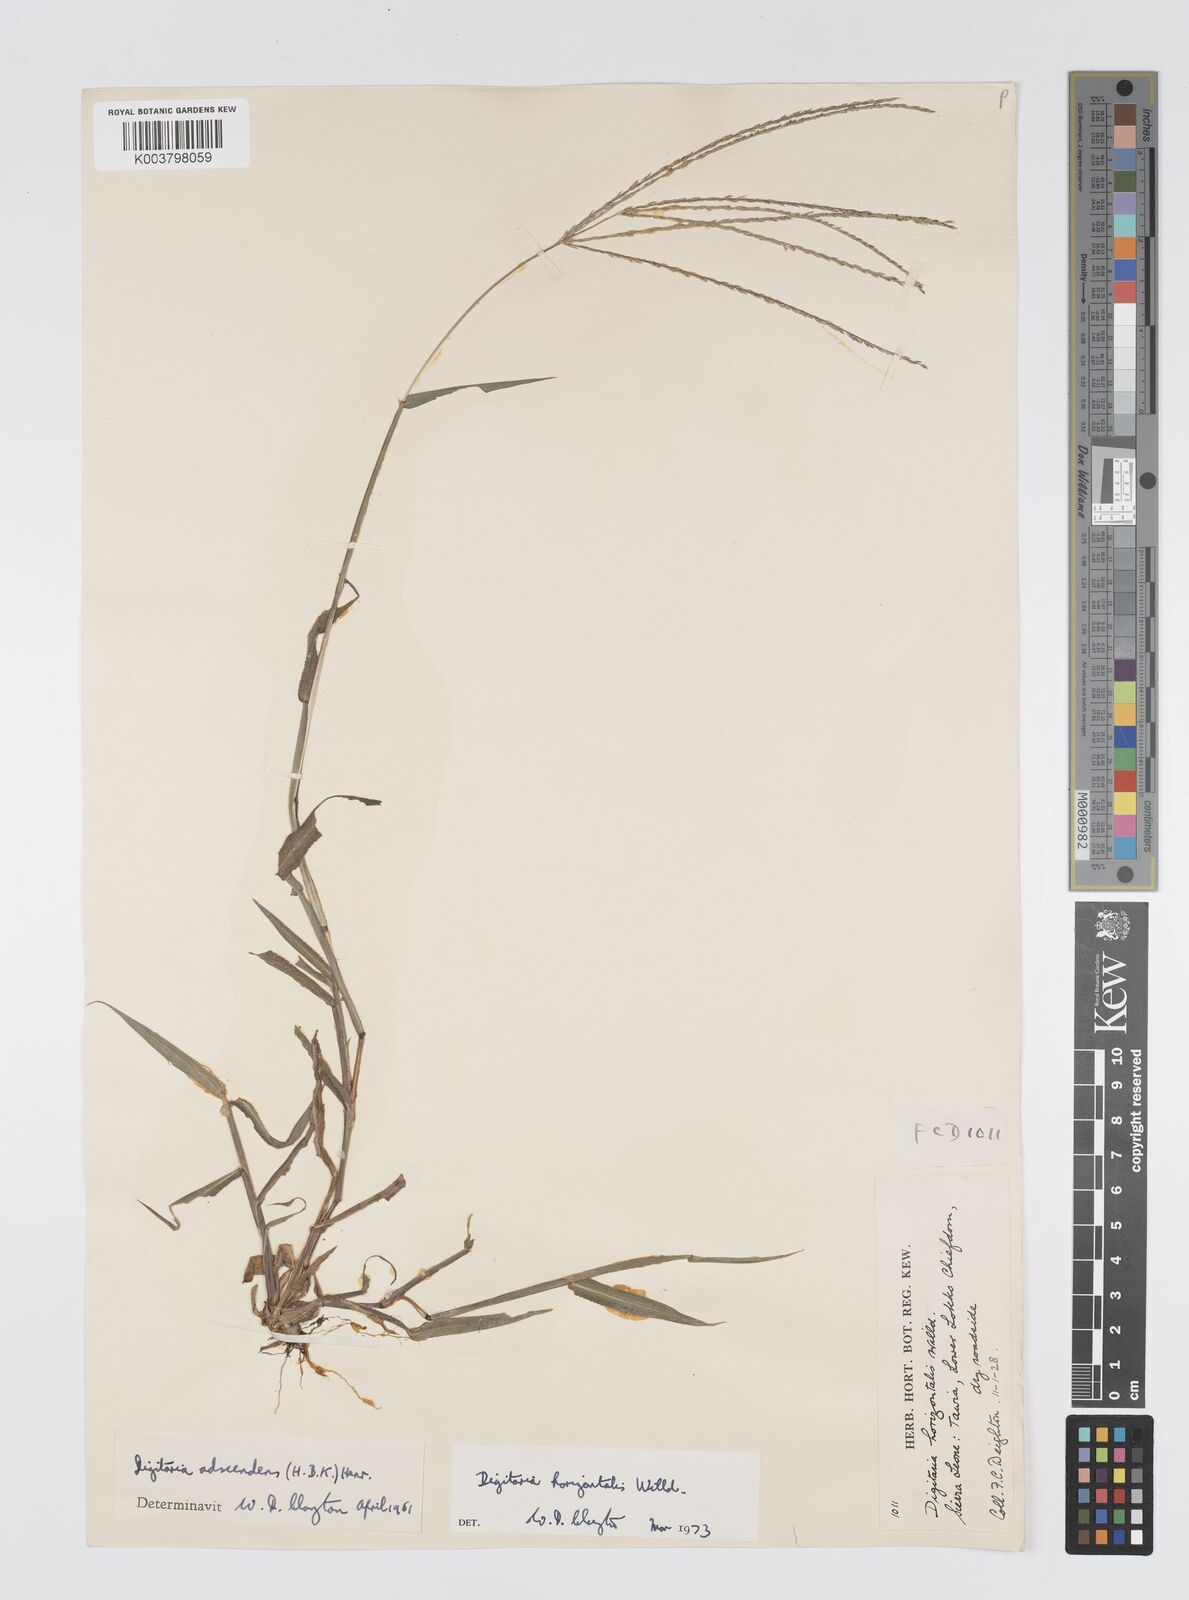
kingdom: Plantae
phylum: Tracheophyta
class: Liliopsida
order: Poales
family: Poaceae
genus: Digitaria
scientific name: Digitaria horizontalis
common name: Jamaican crabgrass
